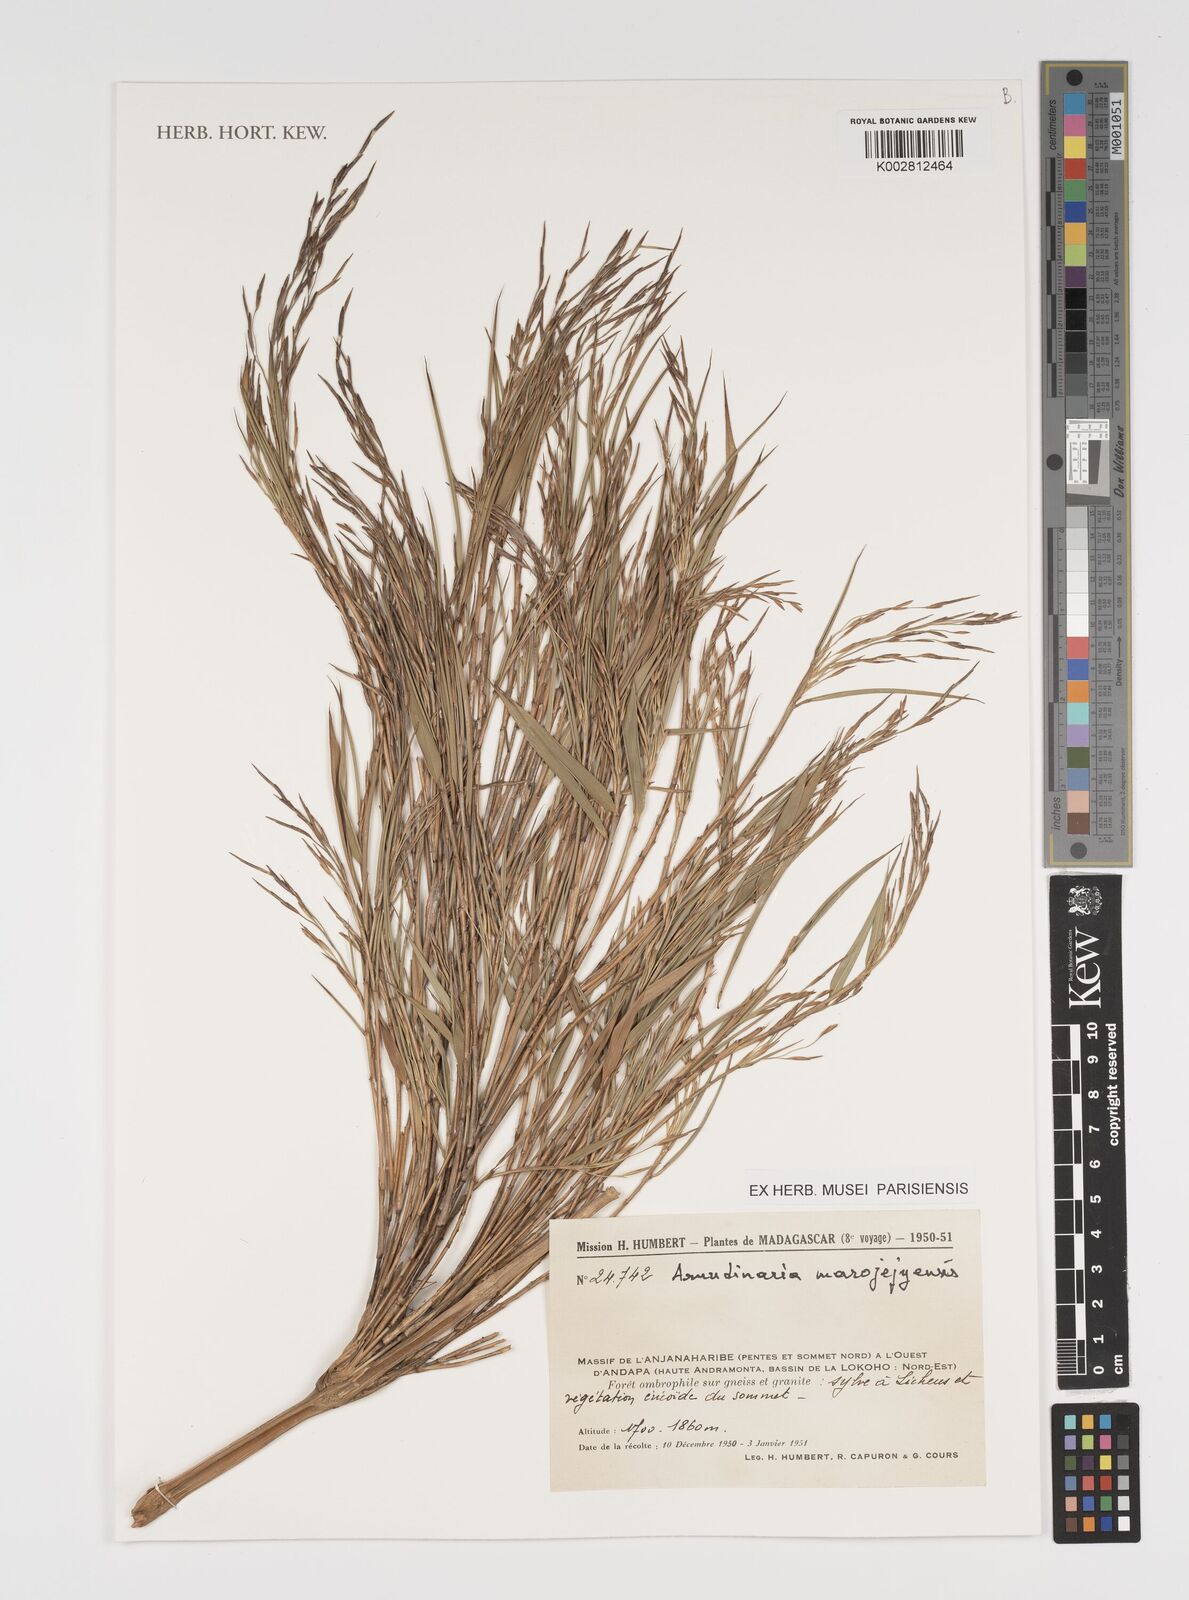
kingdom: Plantae
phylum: Tracheophyta
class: Liliopsida
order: Poales
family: Poaceae
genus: Oldeania
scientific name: Oldeania madagascariensis
